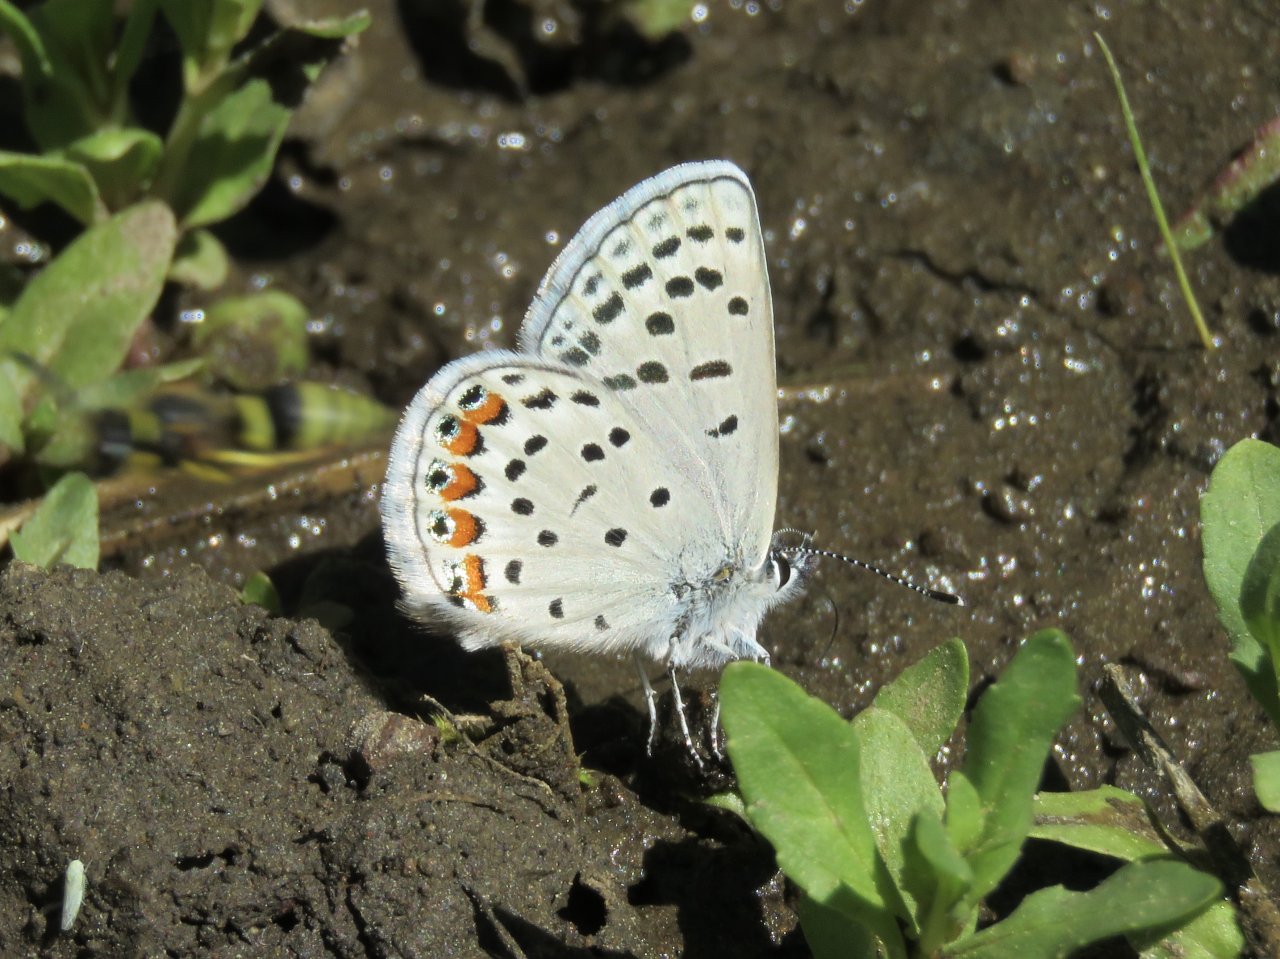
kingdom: Animalia
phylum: Arthropoda
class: Insecta
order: Lepidoptera
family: Lycaenidae
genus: Plebejus
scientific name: Plebejus lupini
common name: Lupine Blue
